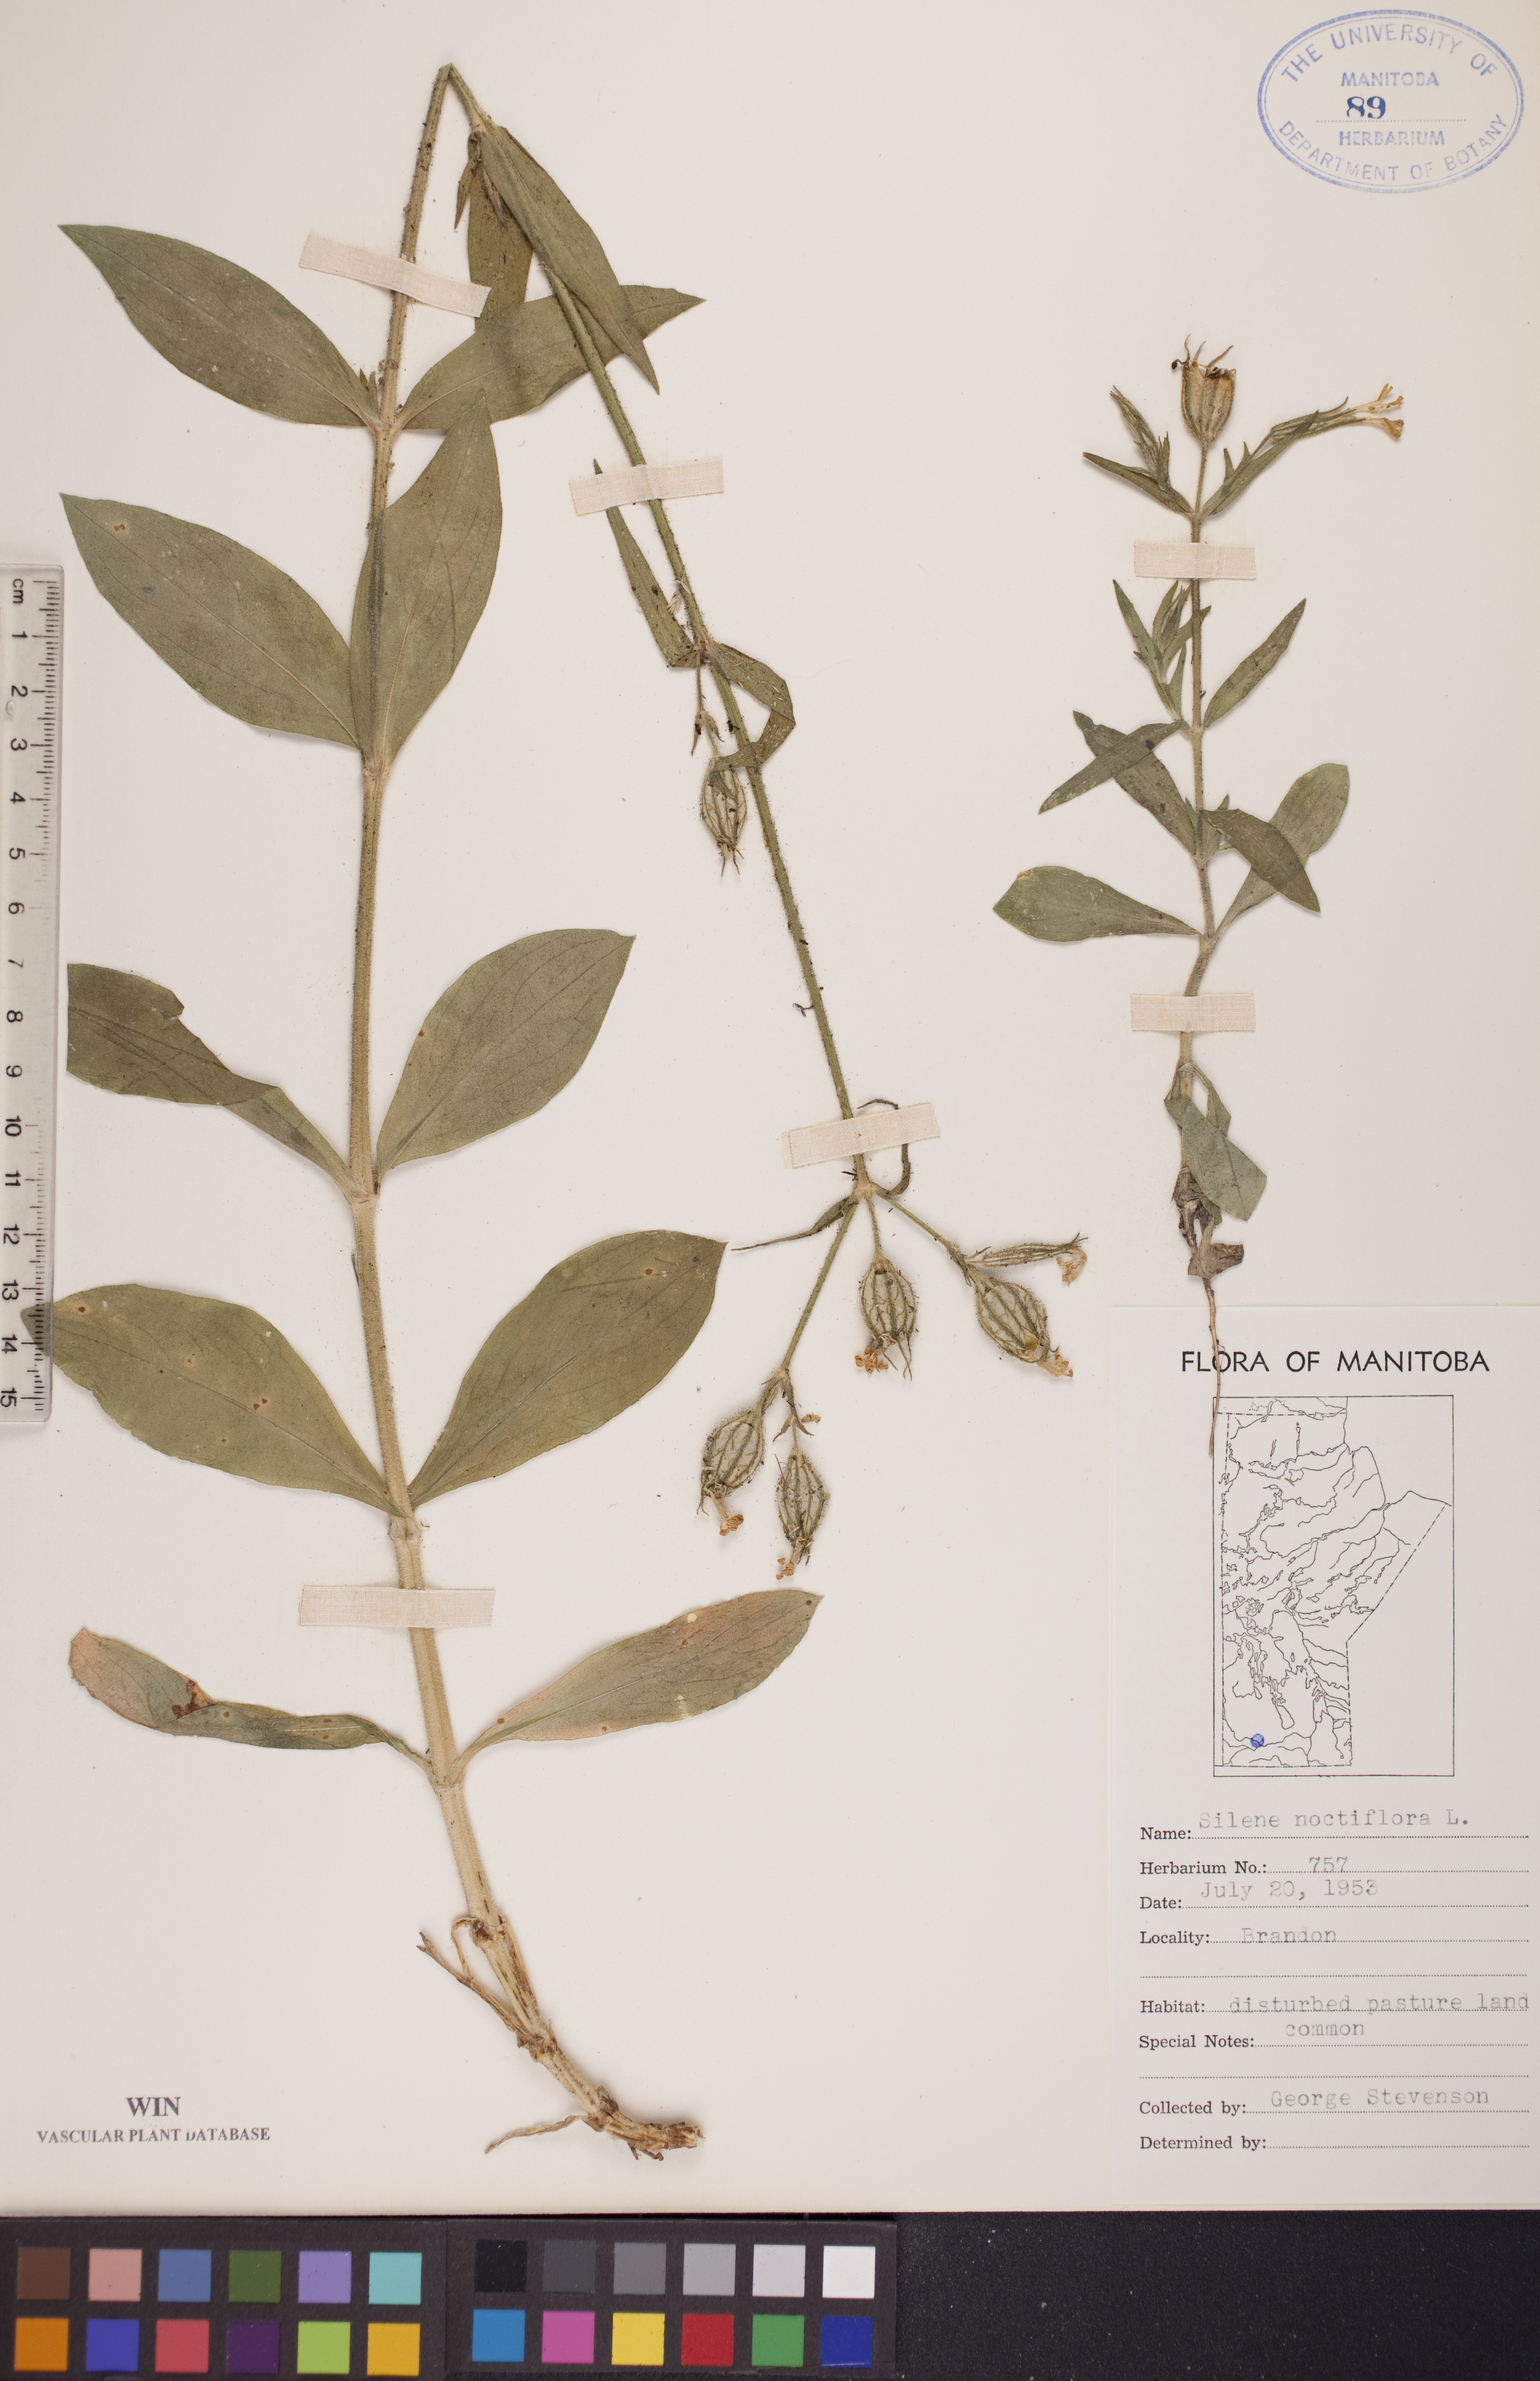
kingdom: Plantae
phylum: Tracheophyta
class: Magnoliopsida
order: Caryophyllales
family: Caryophyllaceae
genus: Silene
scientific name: Silene noctiflora
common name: Night-flowering catchfly
